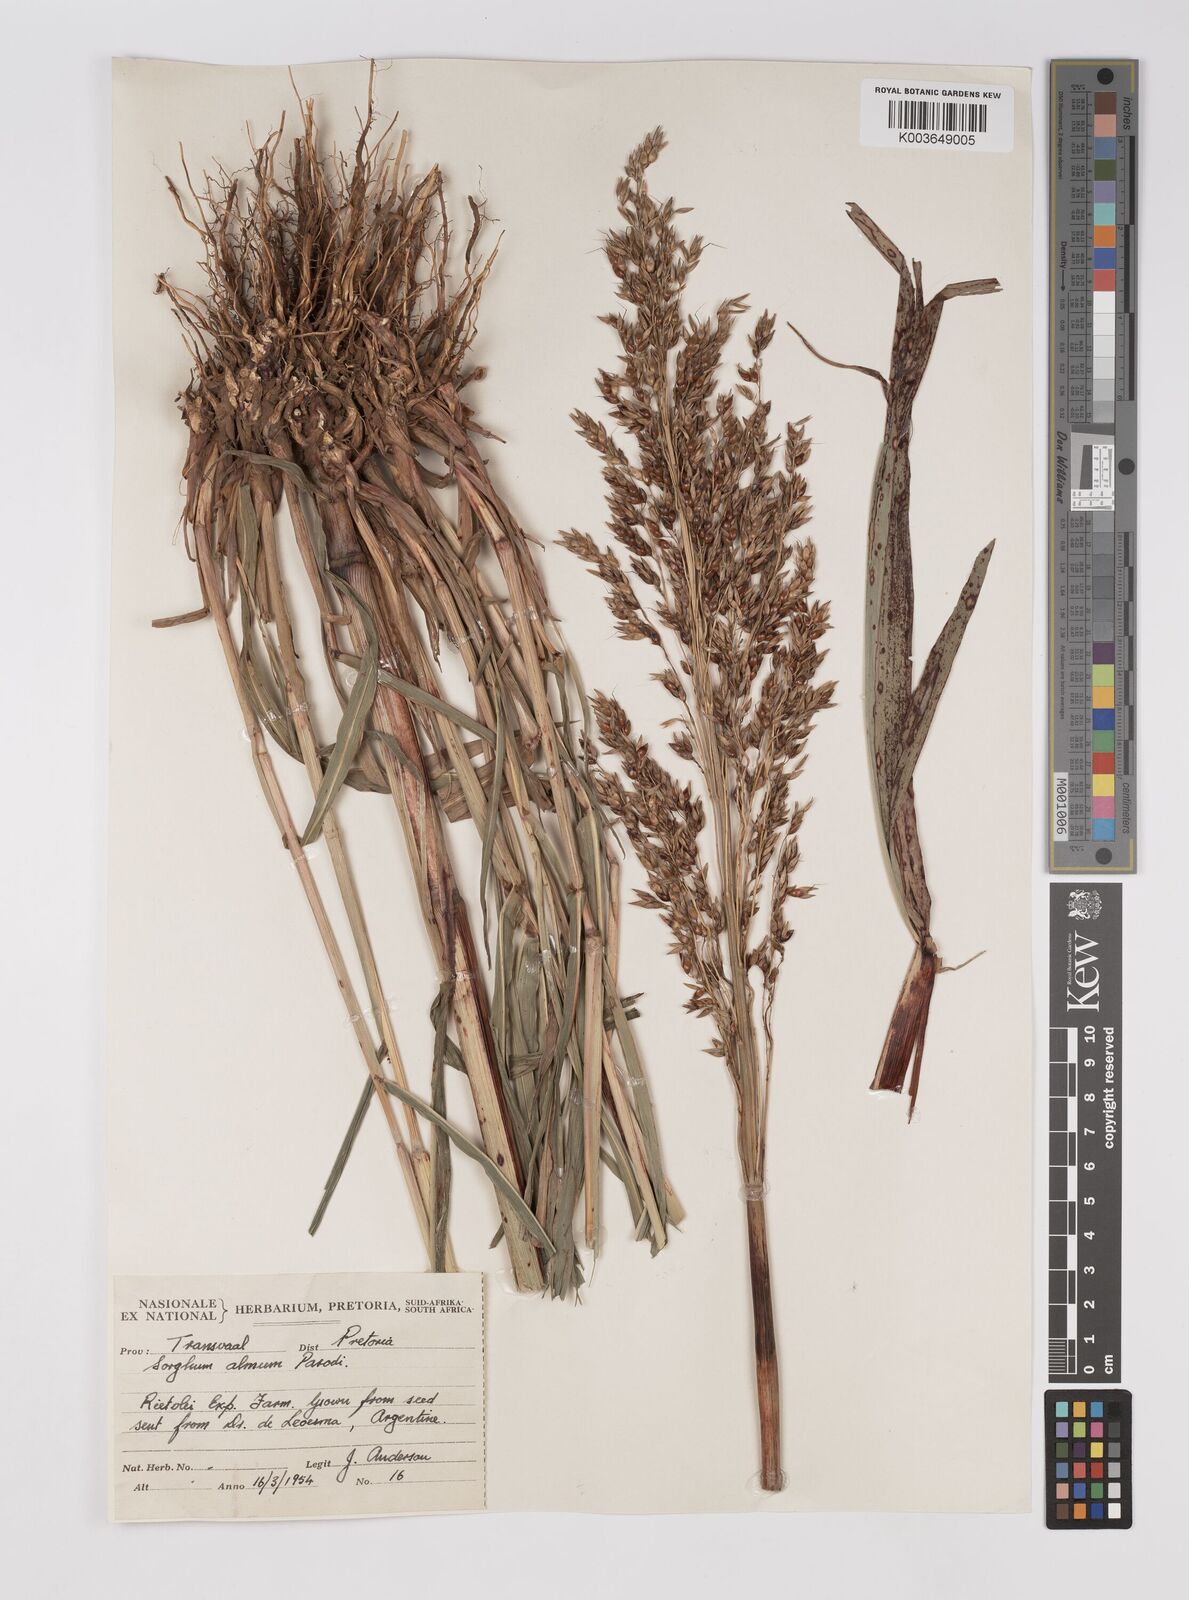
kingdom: Plantae
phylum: Tracheophyta
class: Liliopsida
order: Poales
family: Poaceae
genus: Sorghum
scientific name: Sorghum almum
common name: Columbus grass
